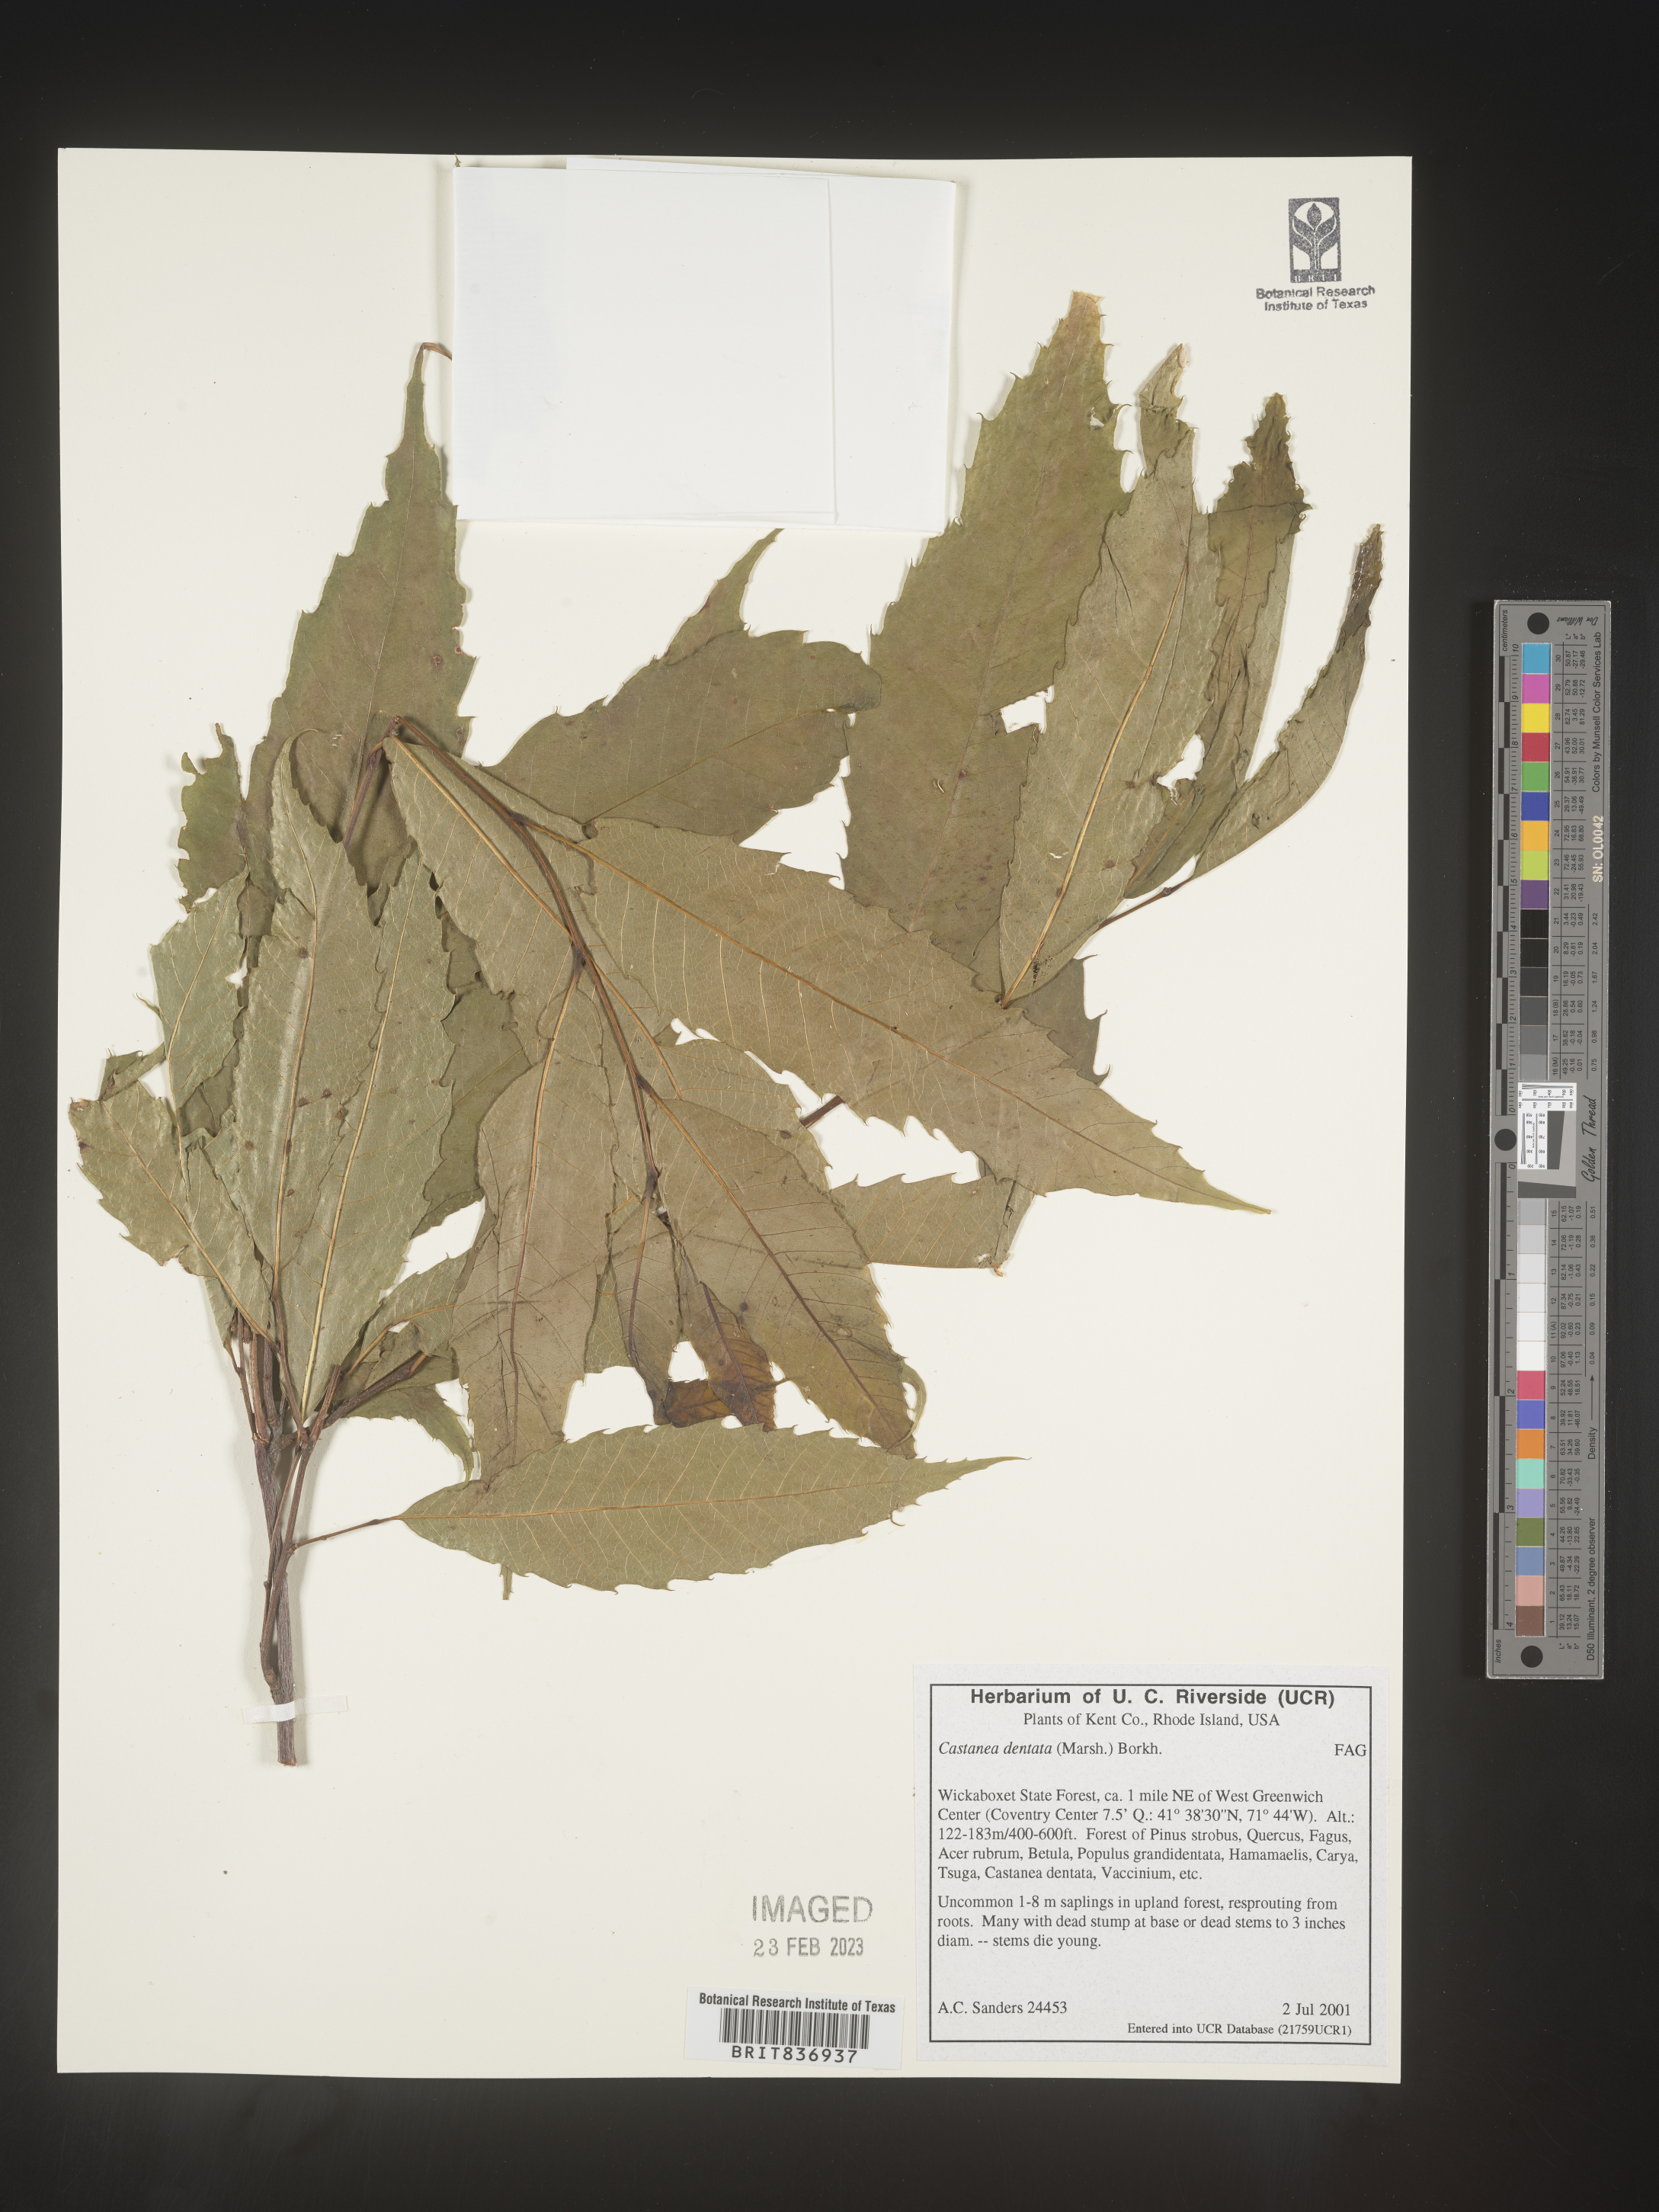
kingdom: Plantae
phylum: Tracheophyta
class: Magnoliopsida
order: Fagales
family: Fagaceae
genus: Castanea
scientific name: Castanea dentata
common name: American chestnut
